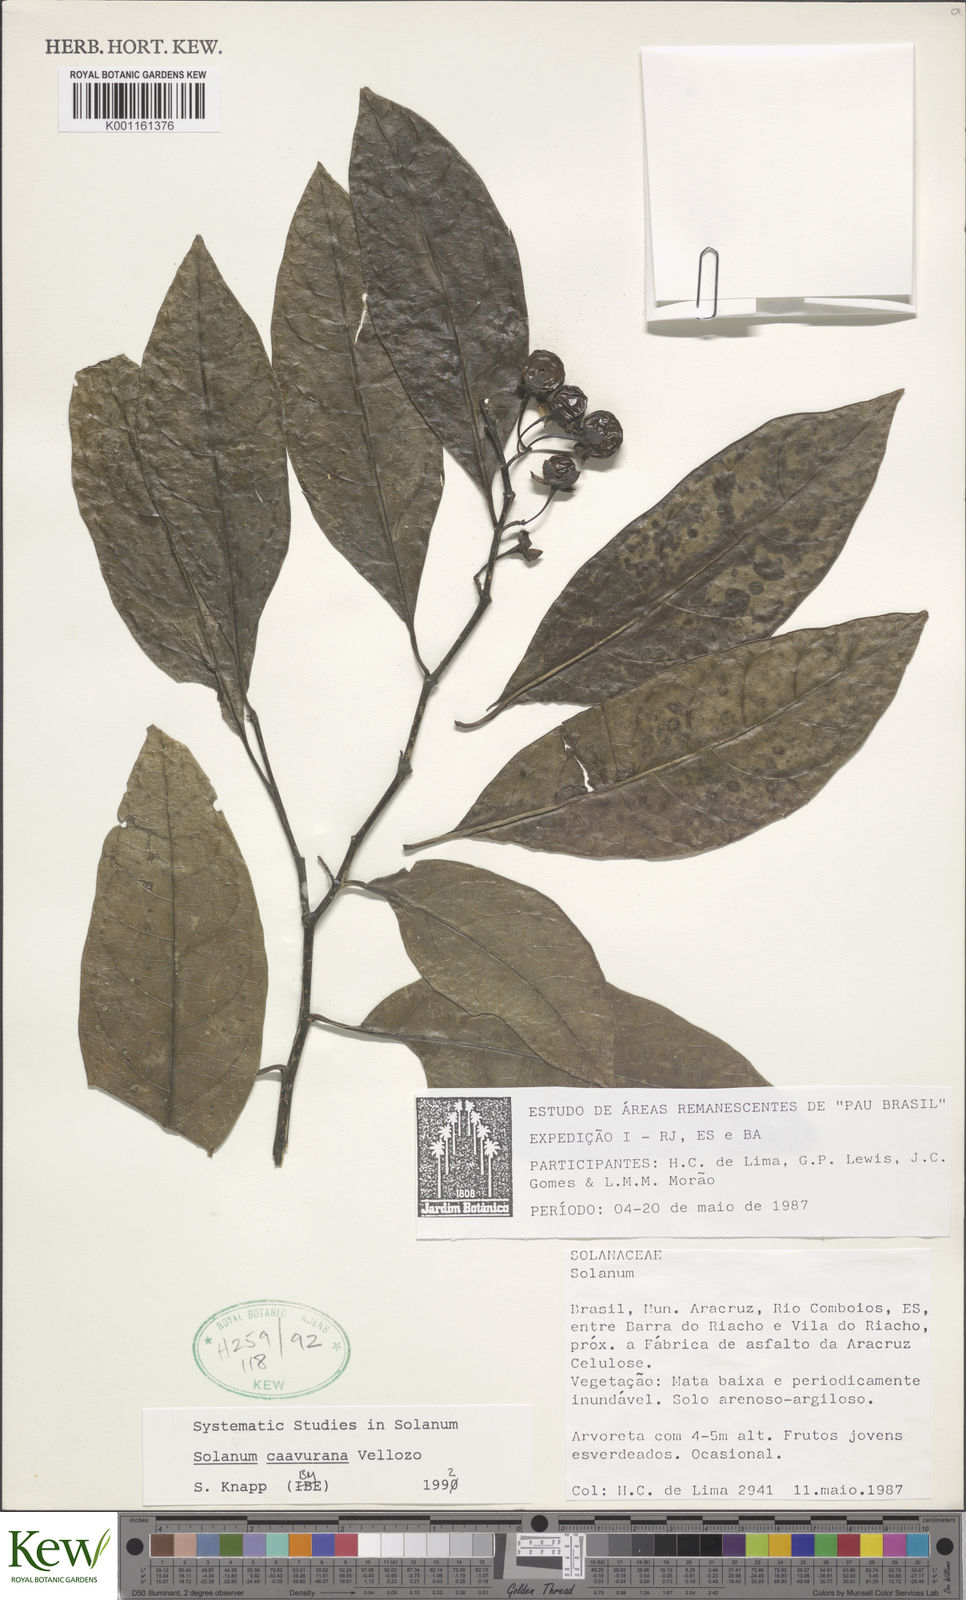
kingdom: Plantae
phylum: Tracheophyta
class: Magnoliopsida
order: Solanales
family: Solanaceae
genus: Solanum
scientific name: Solanum caavurana
